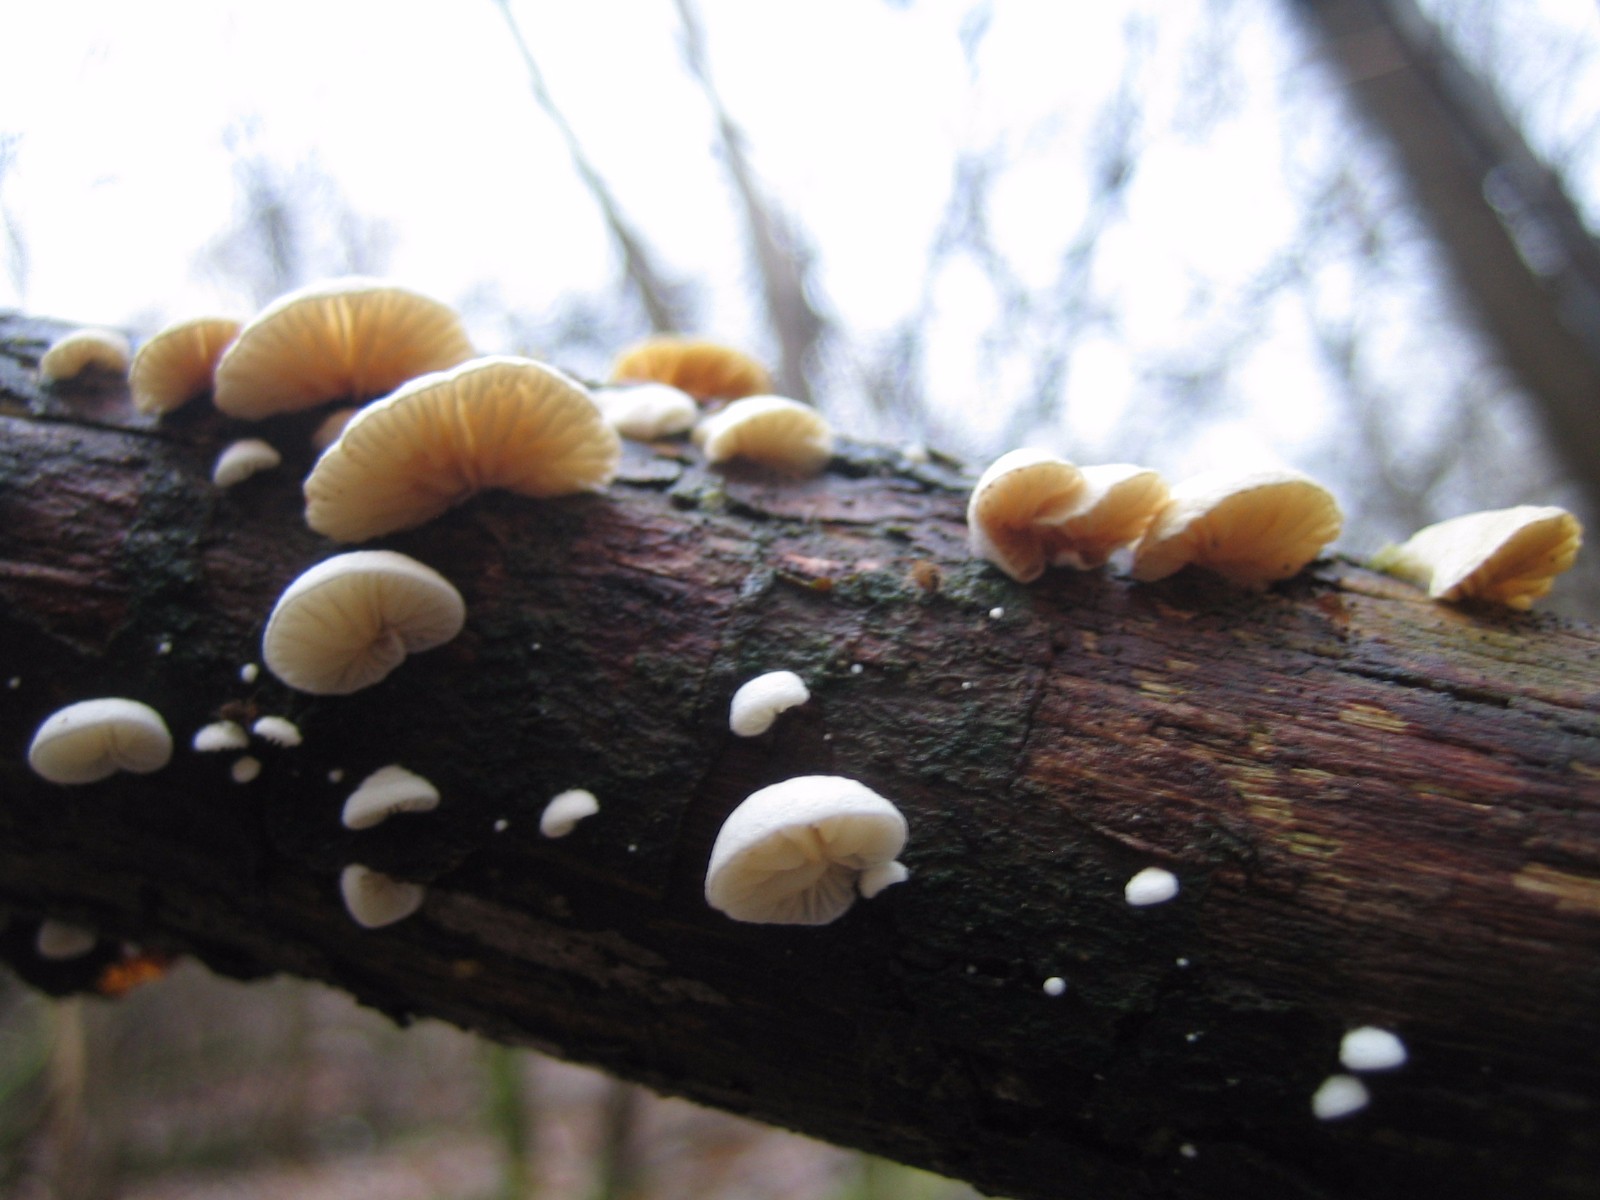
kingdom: Fungi
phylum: Basidiomycota
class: Agaricomycetes
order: Agaricales
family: Crepidotaceae
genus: Crepidotus
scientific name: Crepidotus
